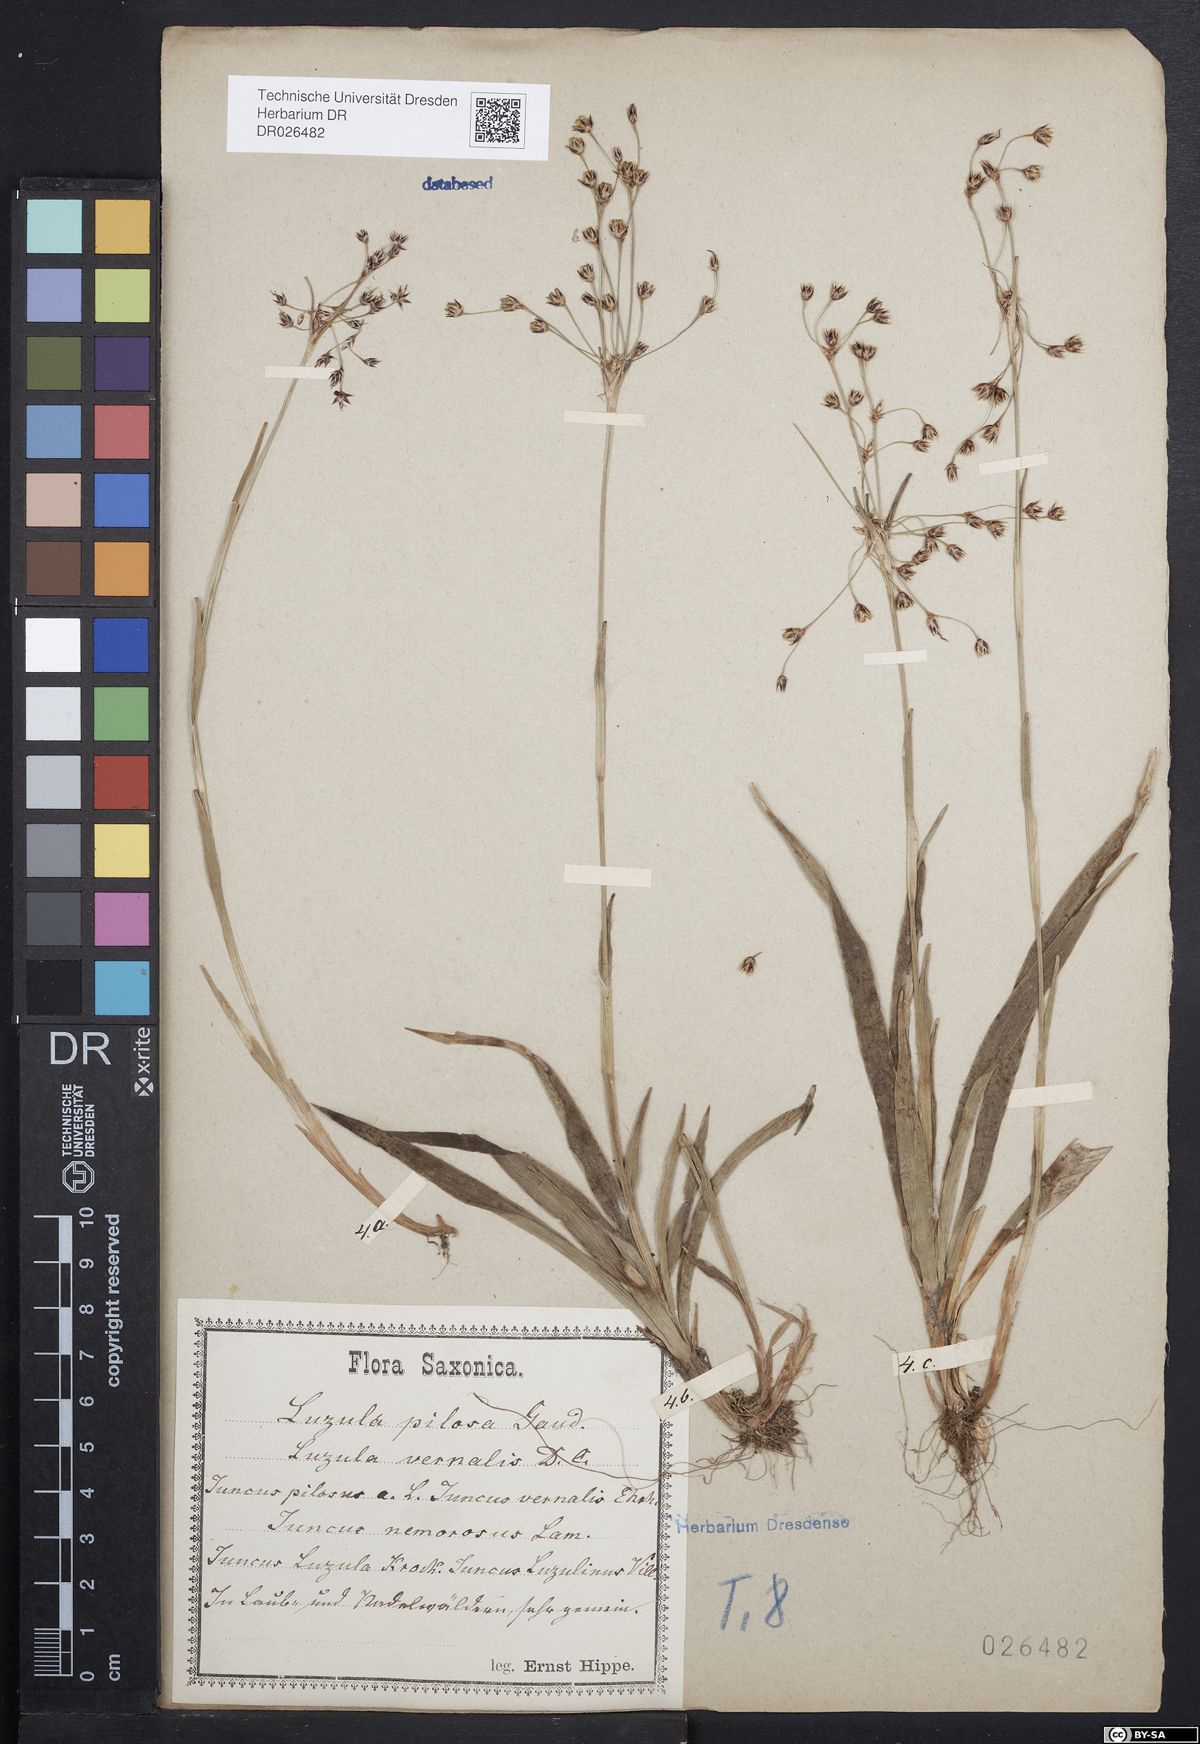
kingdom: Plantae
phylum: Tracheophyta
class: Liliopsida
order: Poales
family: Juncaceae
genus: Luzula
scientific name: Luzula pilosa
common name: Hairy wood-rush
